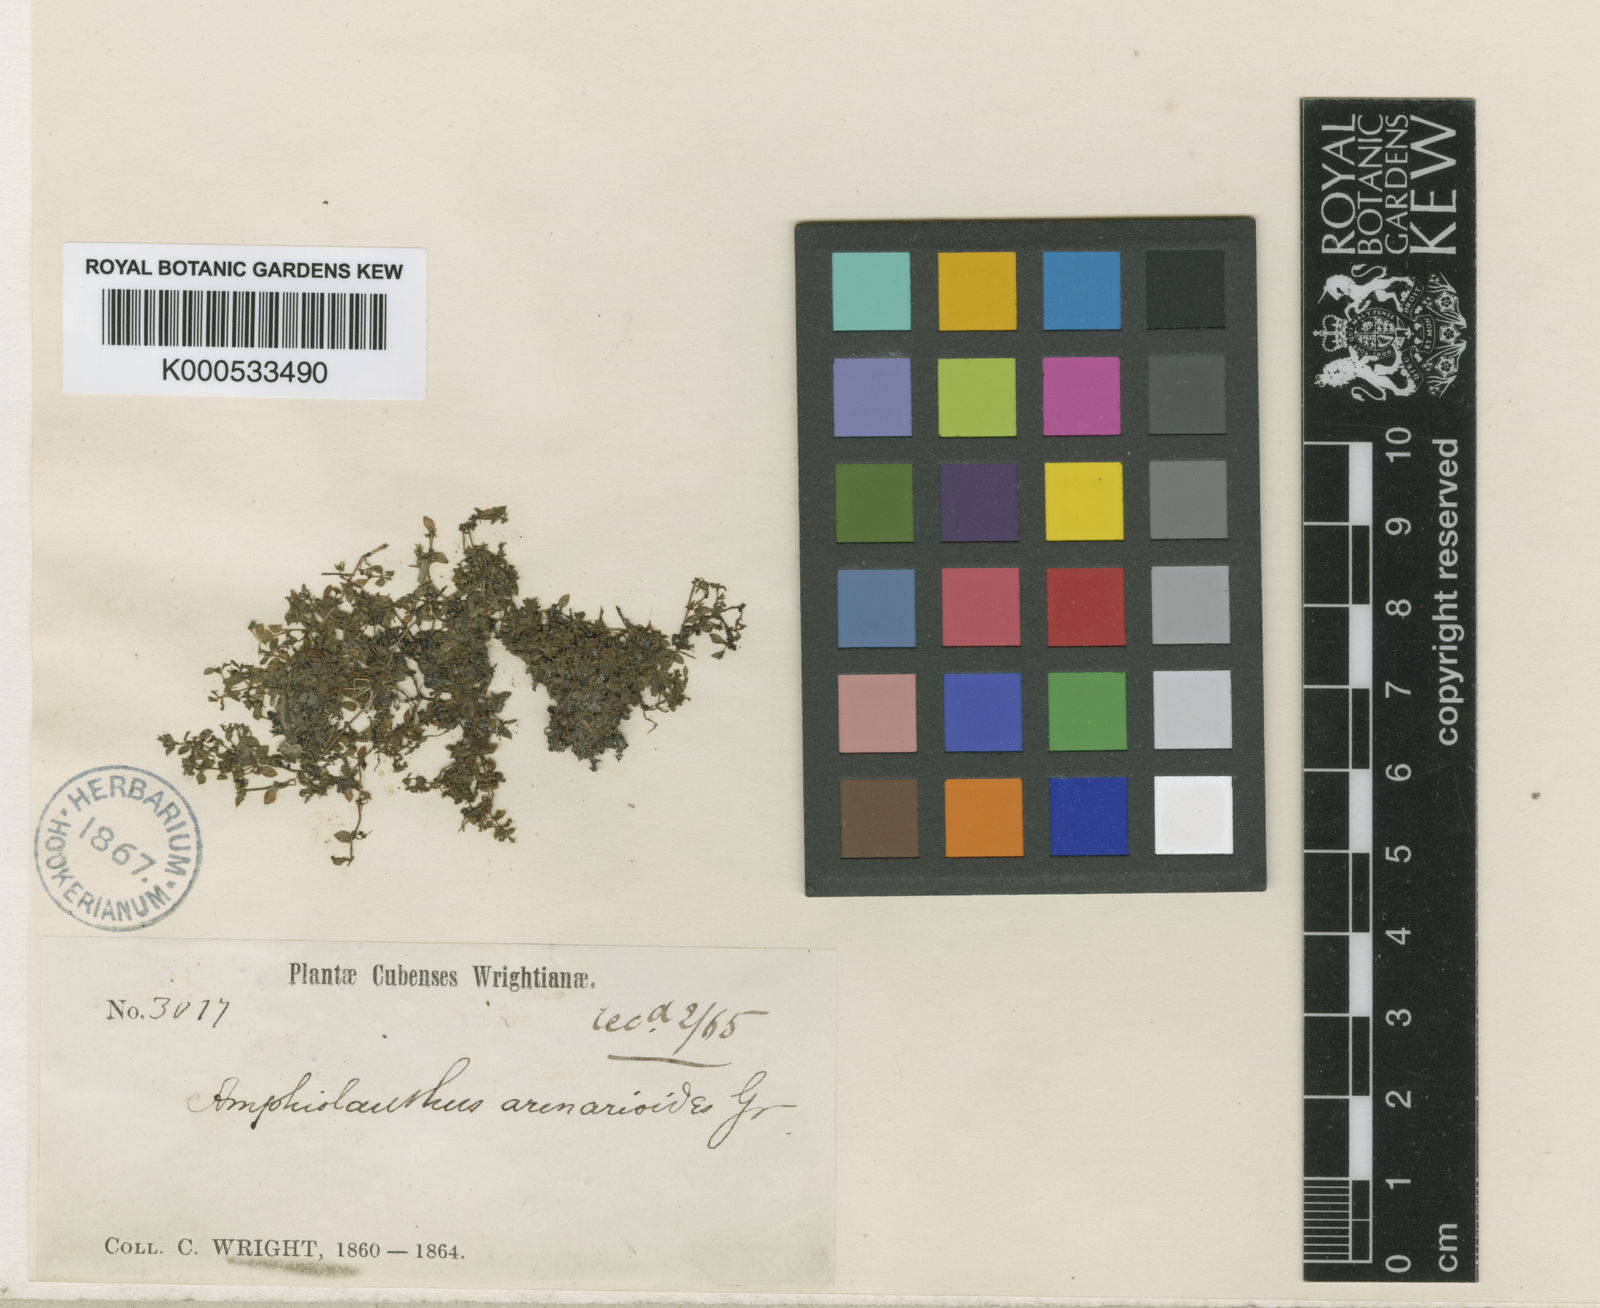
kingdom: Plantae
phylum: Tracheophyta
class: Magnoliopsida
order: Lamiales
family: Linderniaceae
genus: Micranthemum
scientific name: Micranthemum
